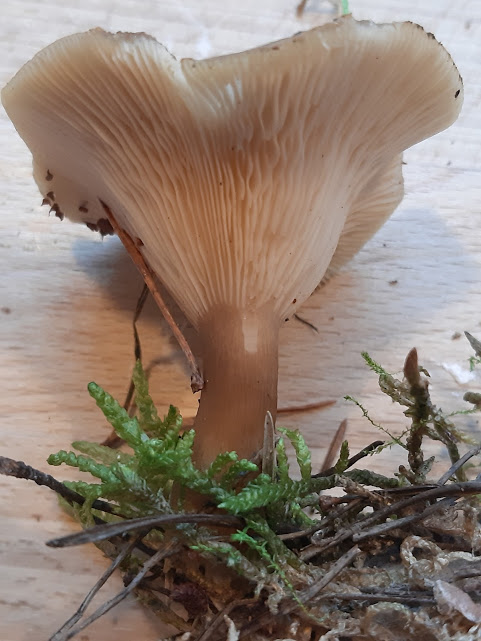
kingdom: Fungi
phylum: Basidiomycota
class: Agaricomycetes
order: Agaricales
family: Hygrophoraceae
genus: Ampulloclitocybe
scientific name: Ampulloclitocybe clavipes
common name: køllefod
